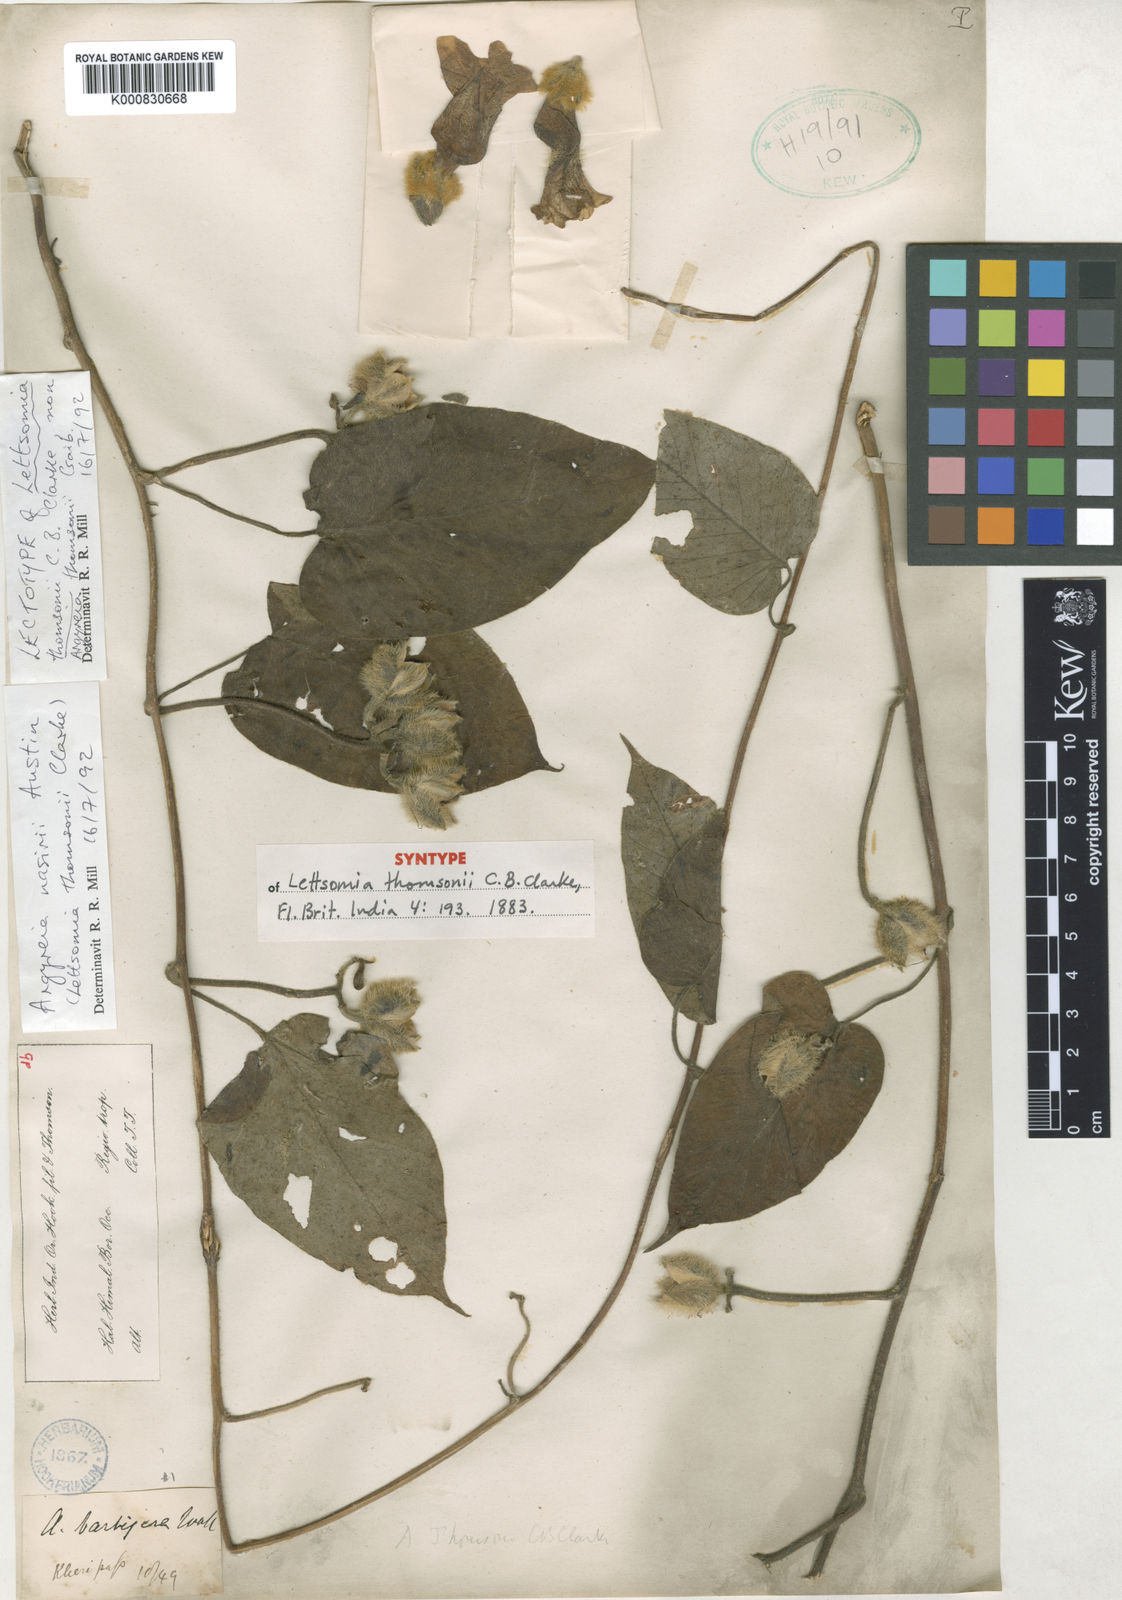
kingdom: Plantae
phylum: Tracheophyta
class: Magnoliopsida
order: Solanales
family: Convolvulaceae
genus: Argyreia
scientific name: Argyreia thomsonii
